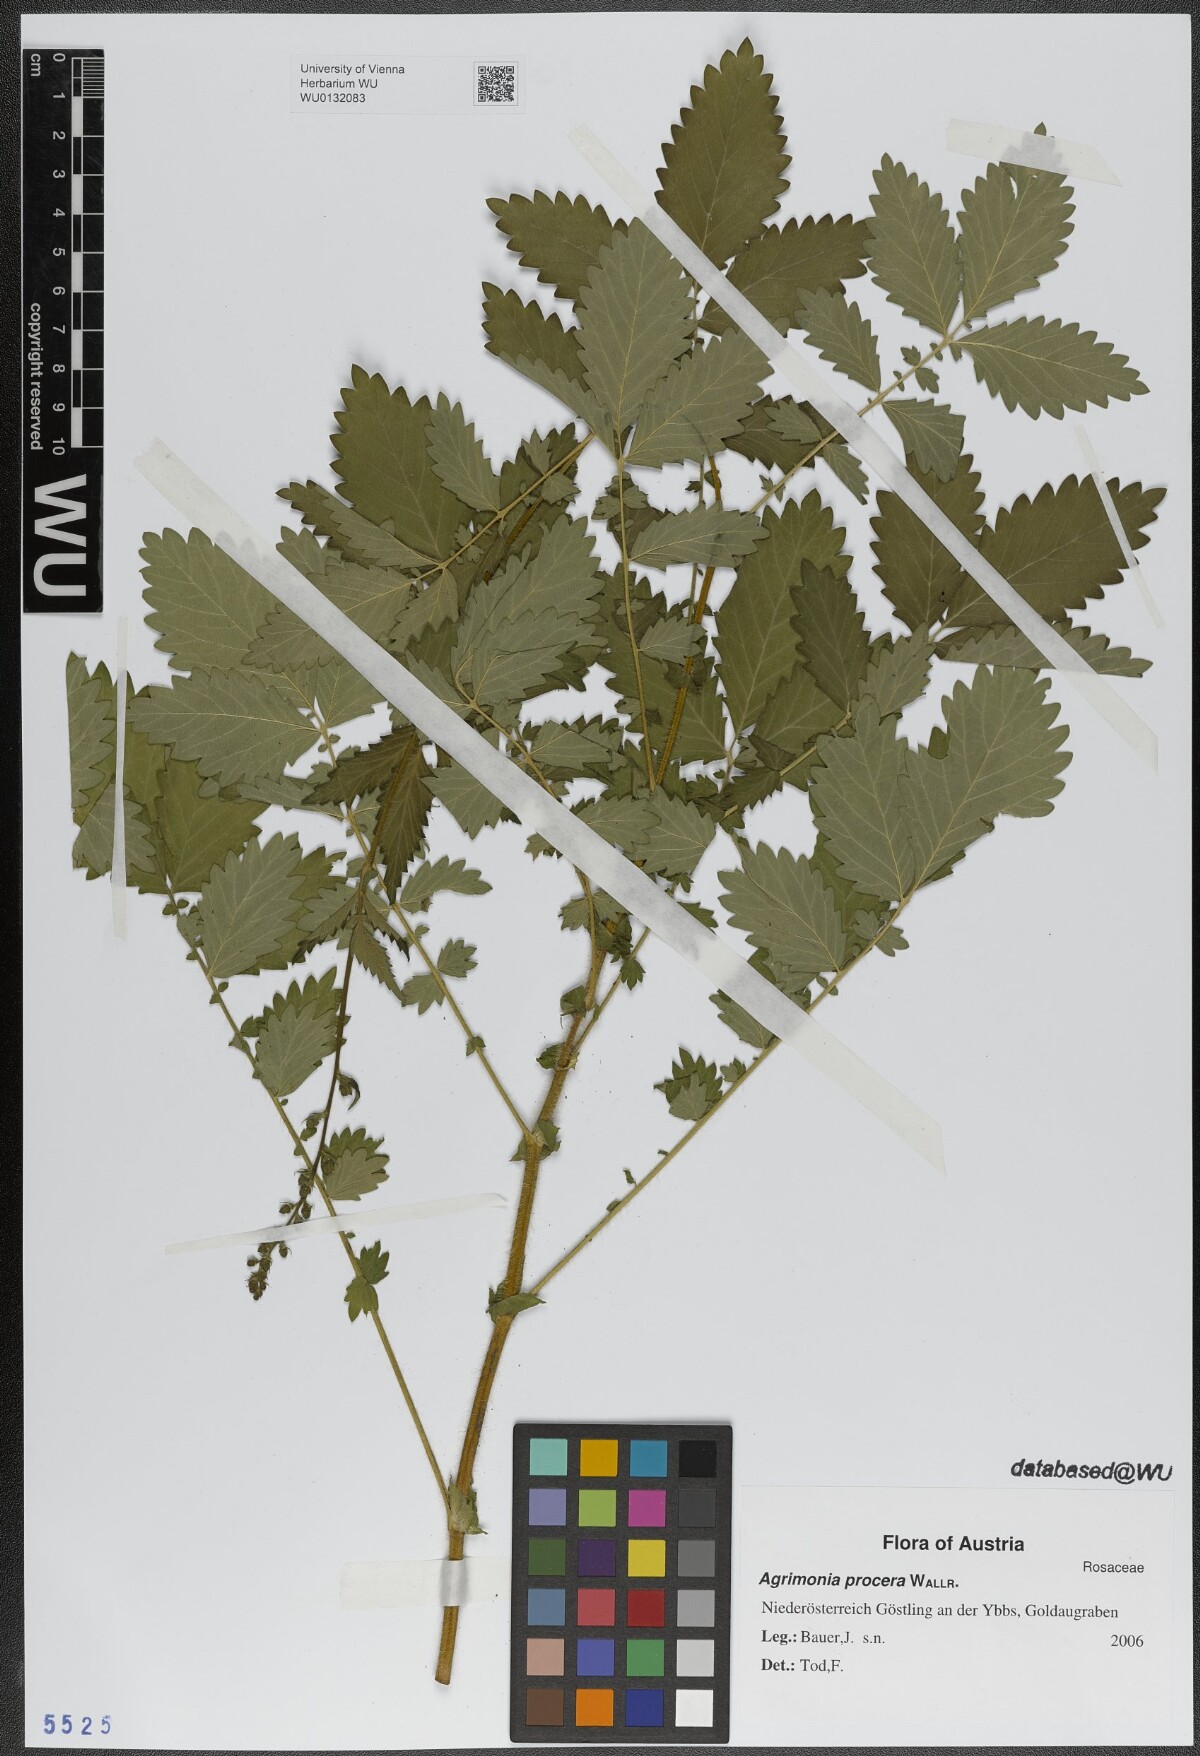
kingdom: Plantae
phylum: Tracheophyta
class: Magnoliopsida
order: Rosales
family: Rosaceae
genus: Agrimonia
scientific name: Agrimonia procera
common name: Fragrant agrimony
